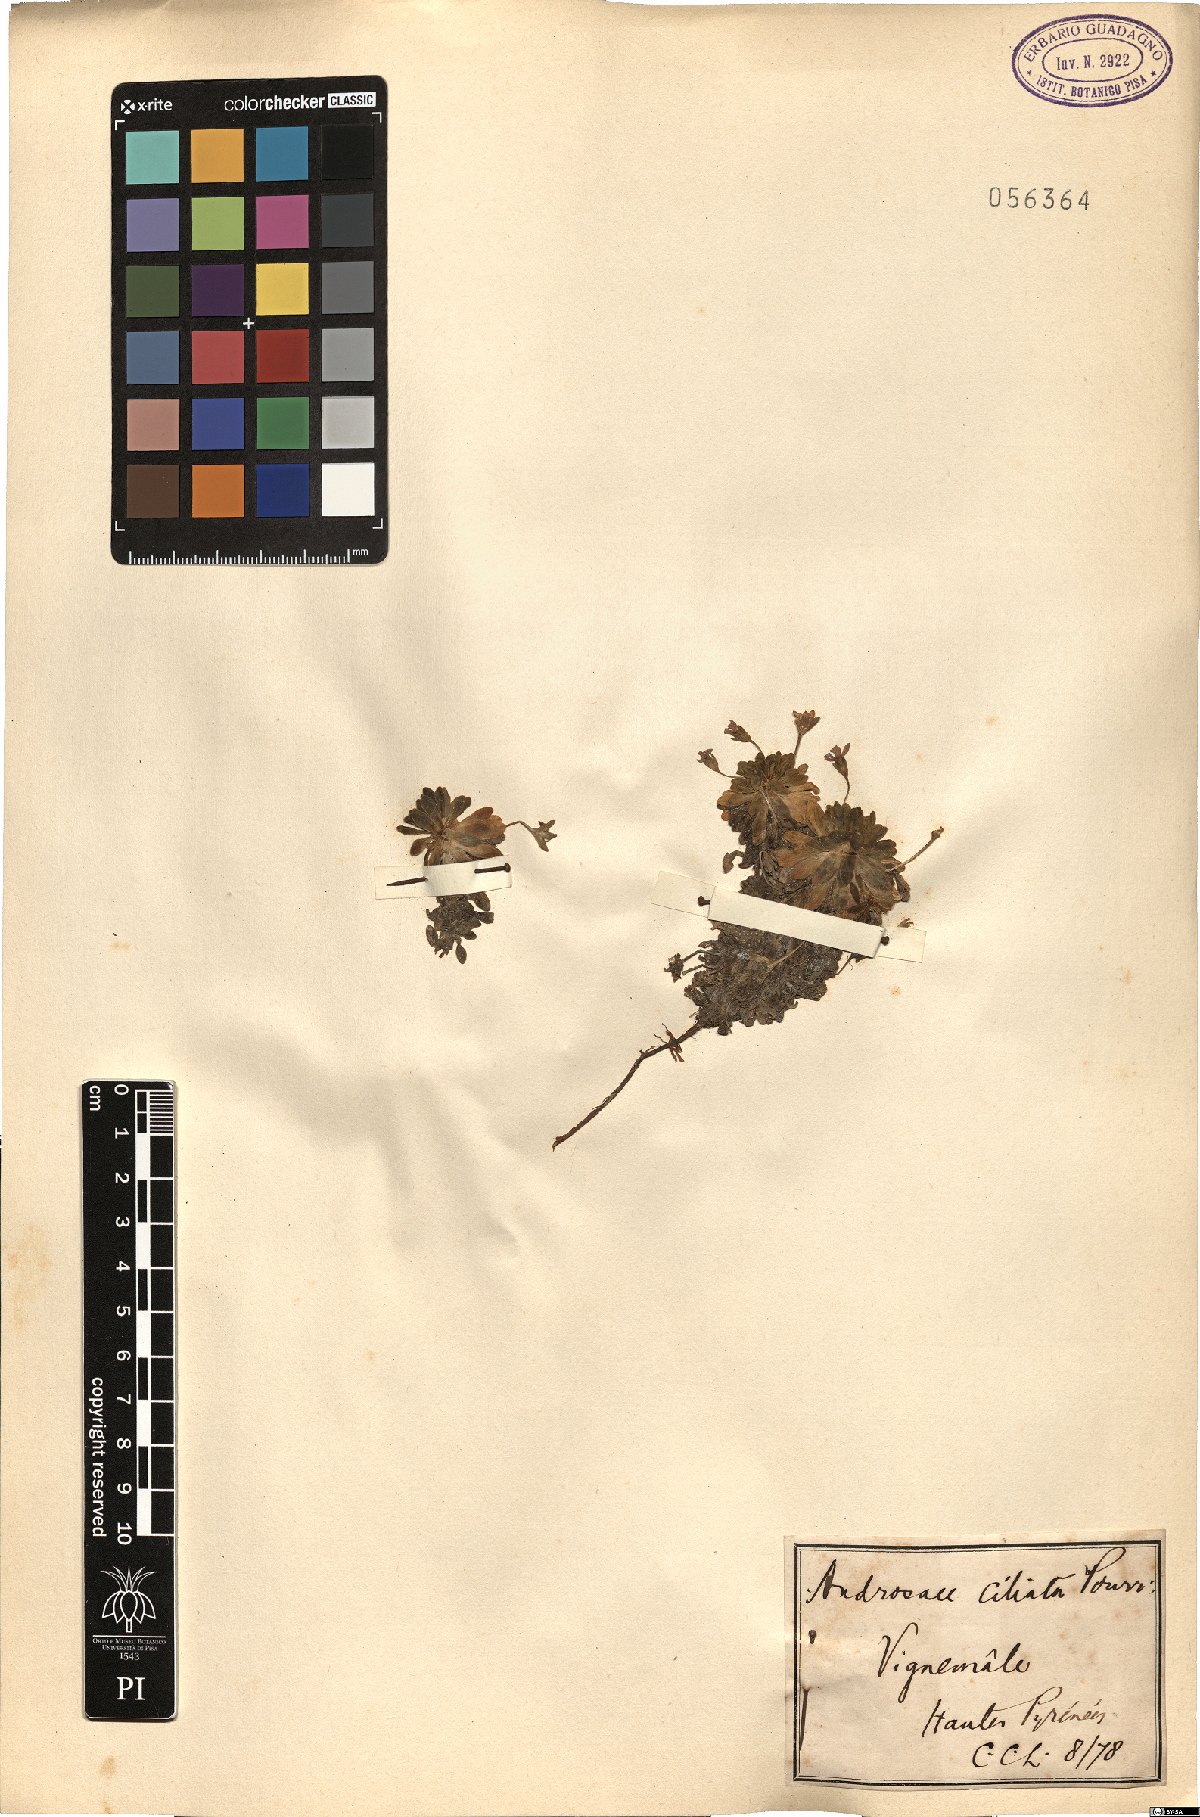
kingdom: Plantae
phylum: Tracheophyta
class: Magnoliopsida
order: Ericales
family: Primulaceae
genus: Androsace
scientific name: Androsace ciliata
